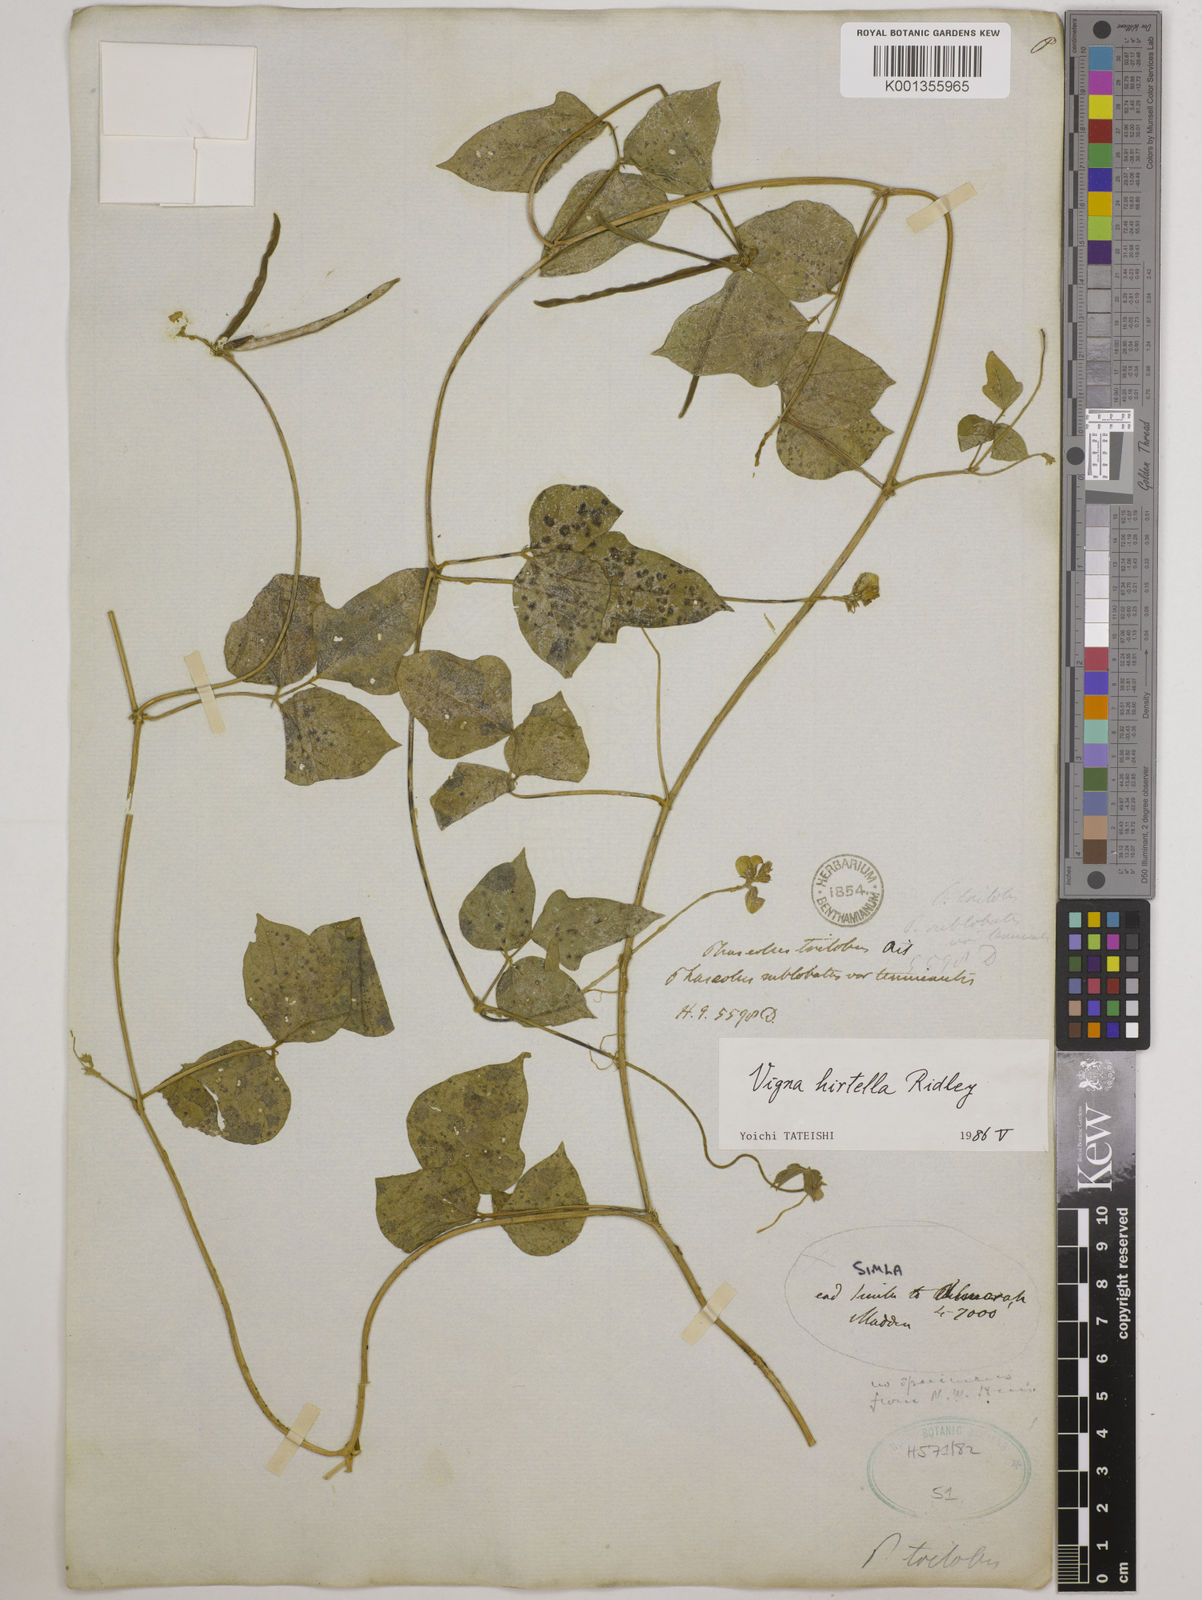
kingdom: Plantae
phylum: Tracheophyta
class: Magnoliopsida
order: Fabales
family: Fabaceae
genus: Vigna
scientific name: Vigna hirtella
